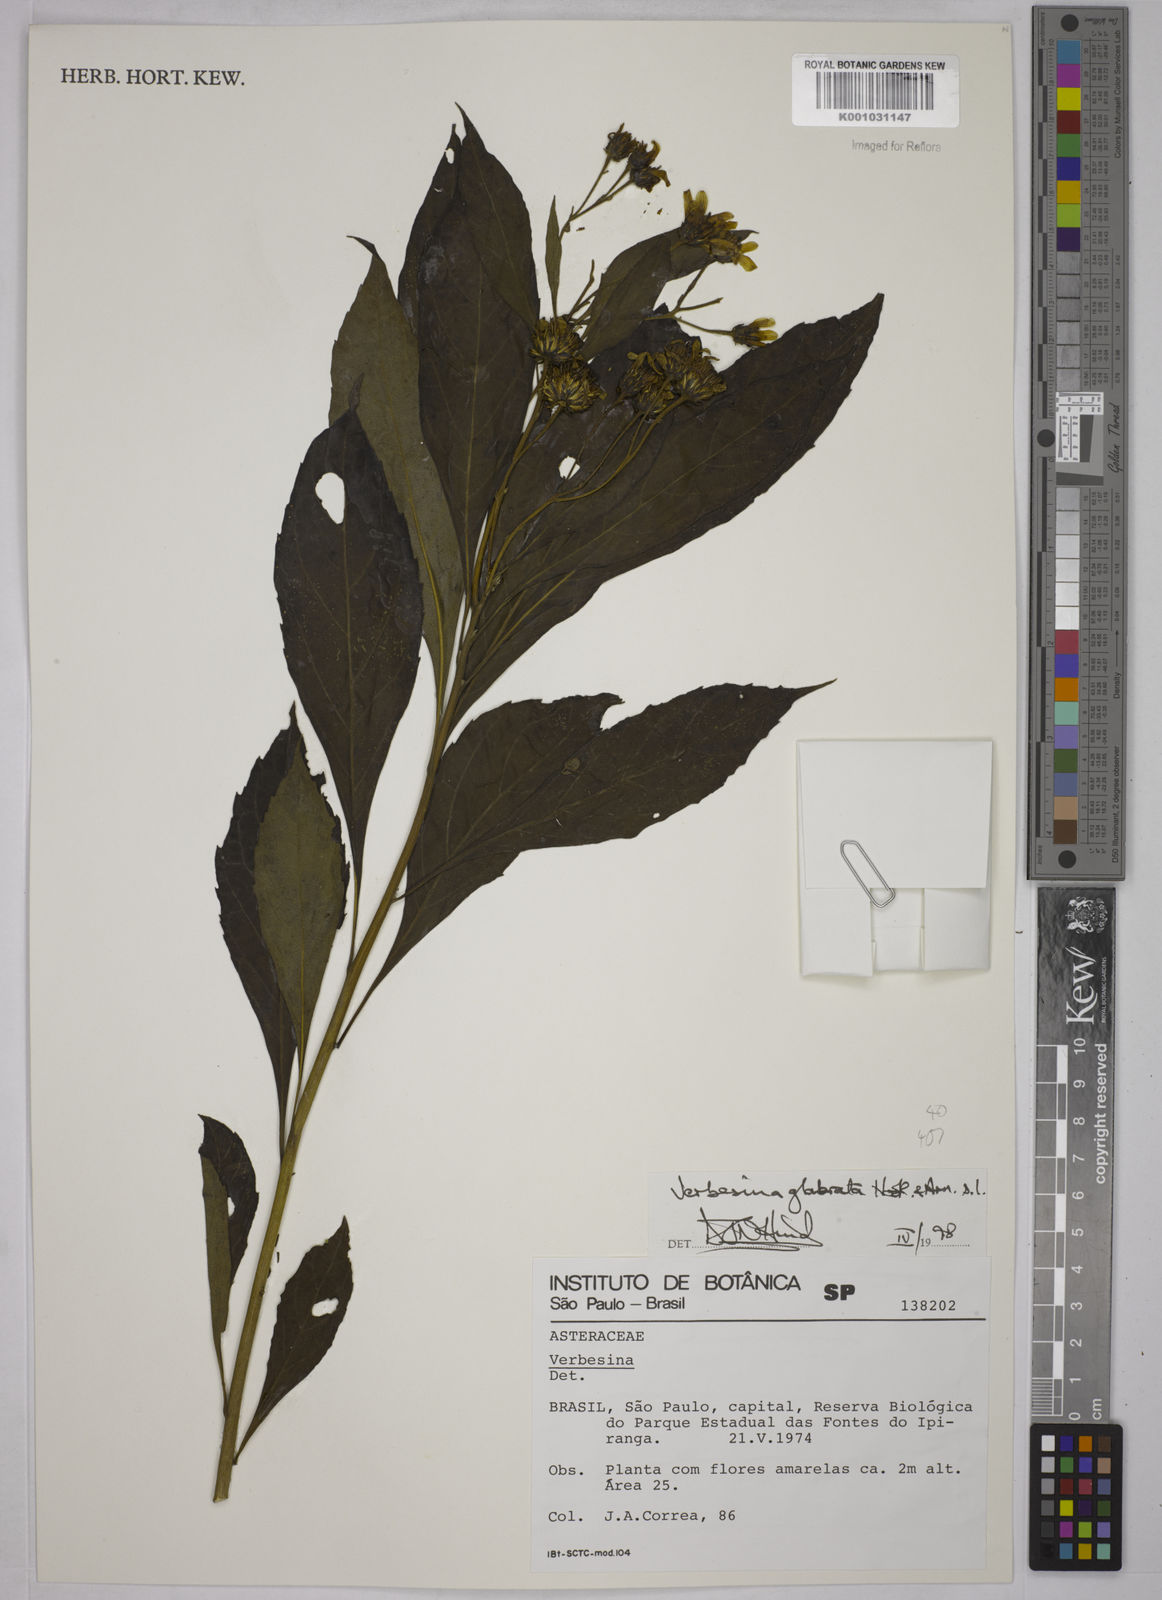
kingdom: Plantae
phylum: Tracheophyta
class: Magnoliopsida
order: Asterales
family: Asteraceae
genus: Verbesina
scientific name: Verbesina glabrata
